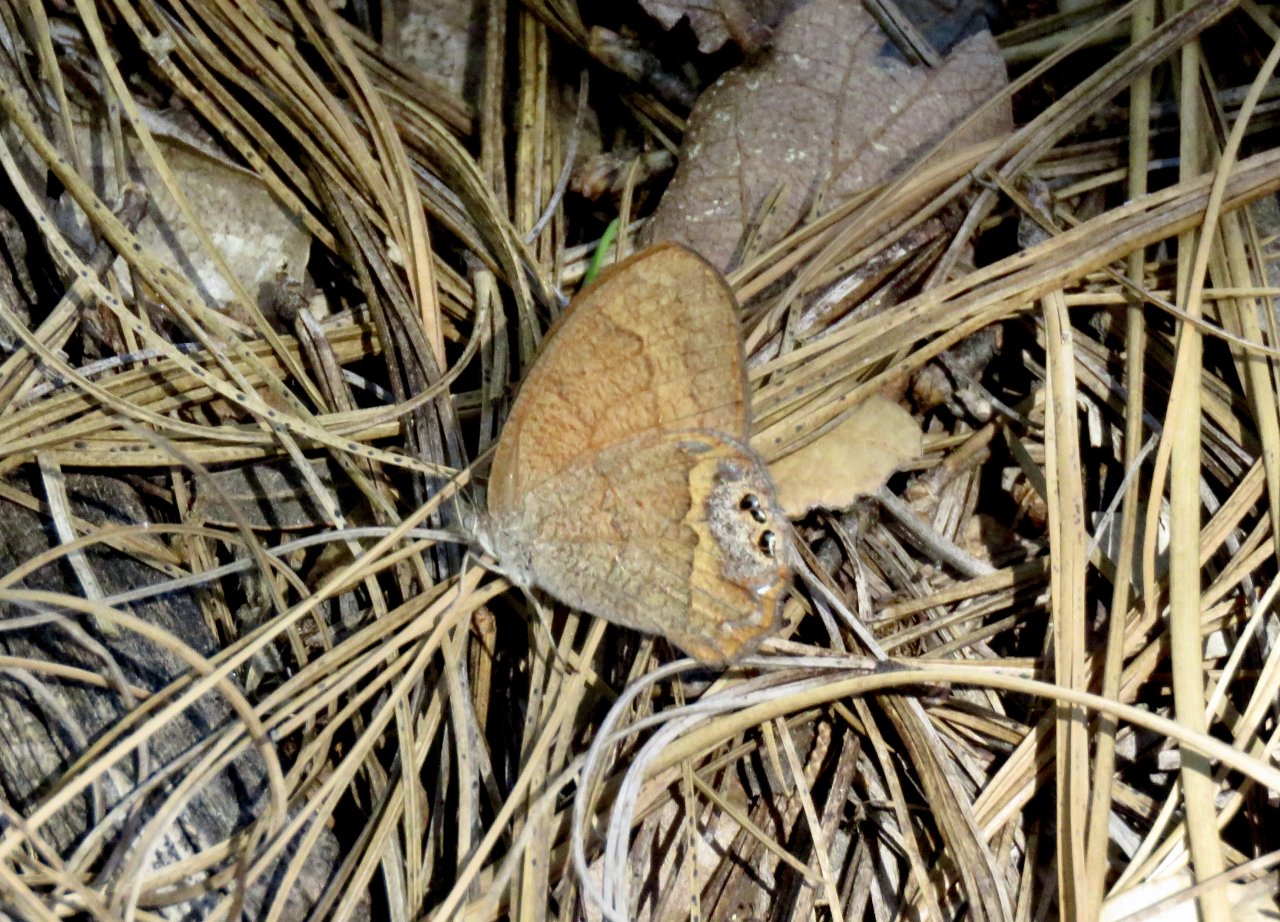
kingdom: Animalia
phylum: Arthropoda
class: Insecta
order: Lepidoptera
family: Nymphalidae
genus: Euptychia
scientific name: Euptychia Cyllopsis pertepida
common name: Canyonland Satyr
